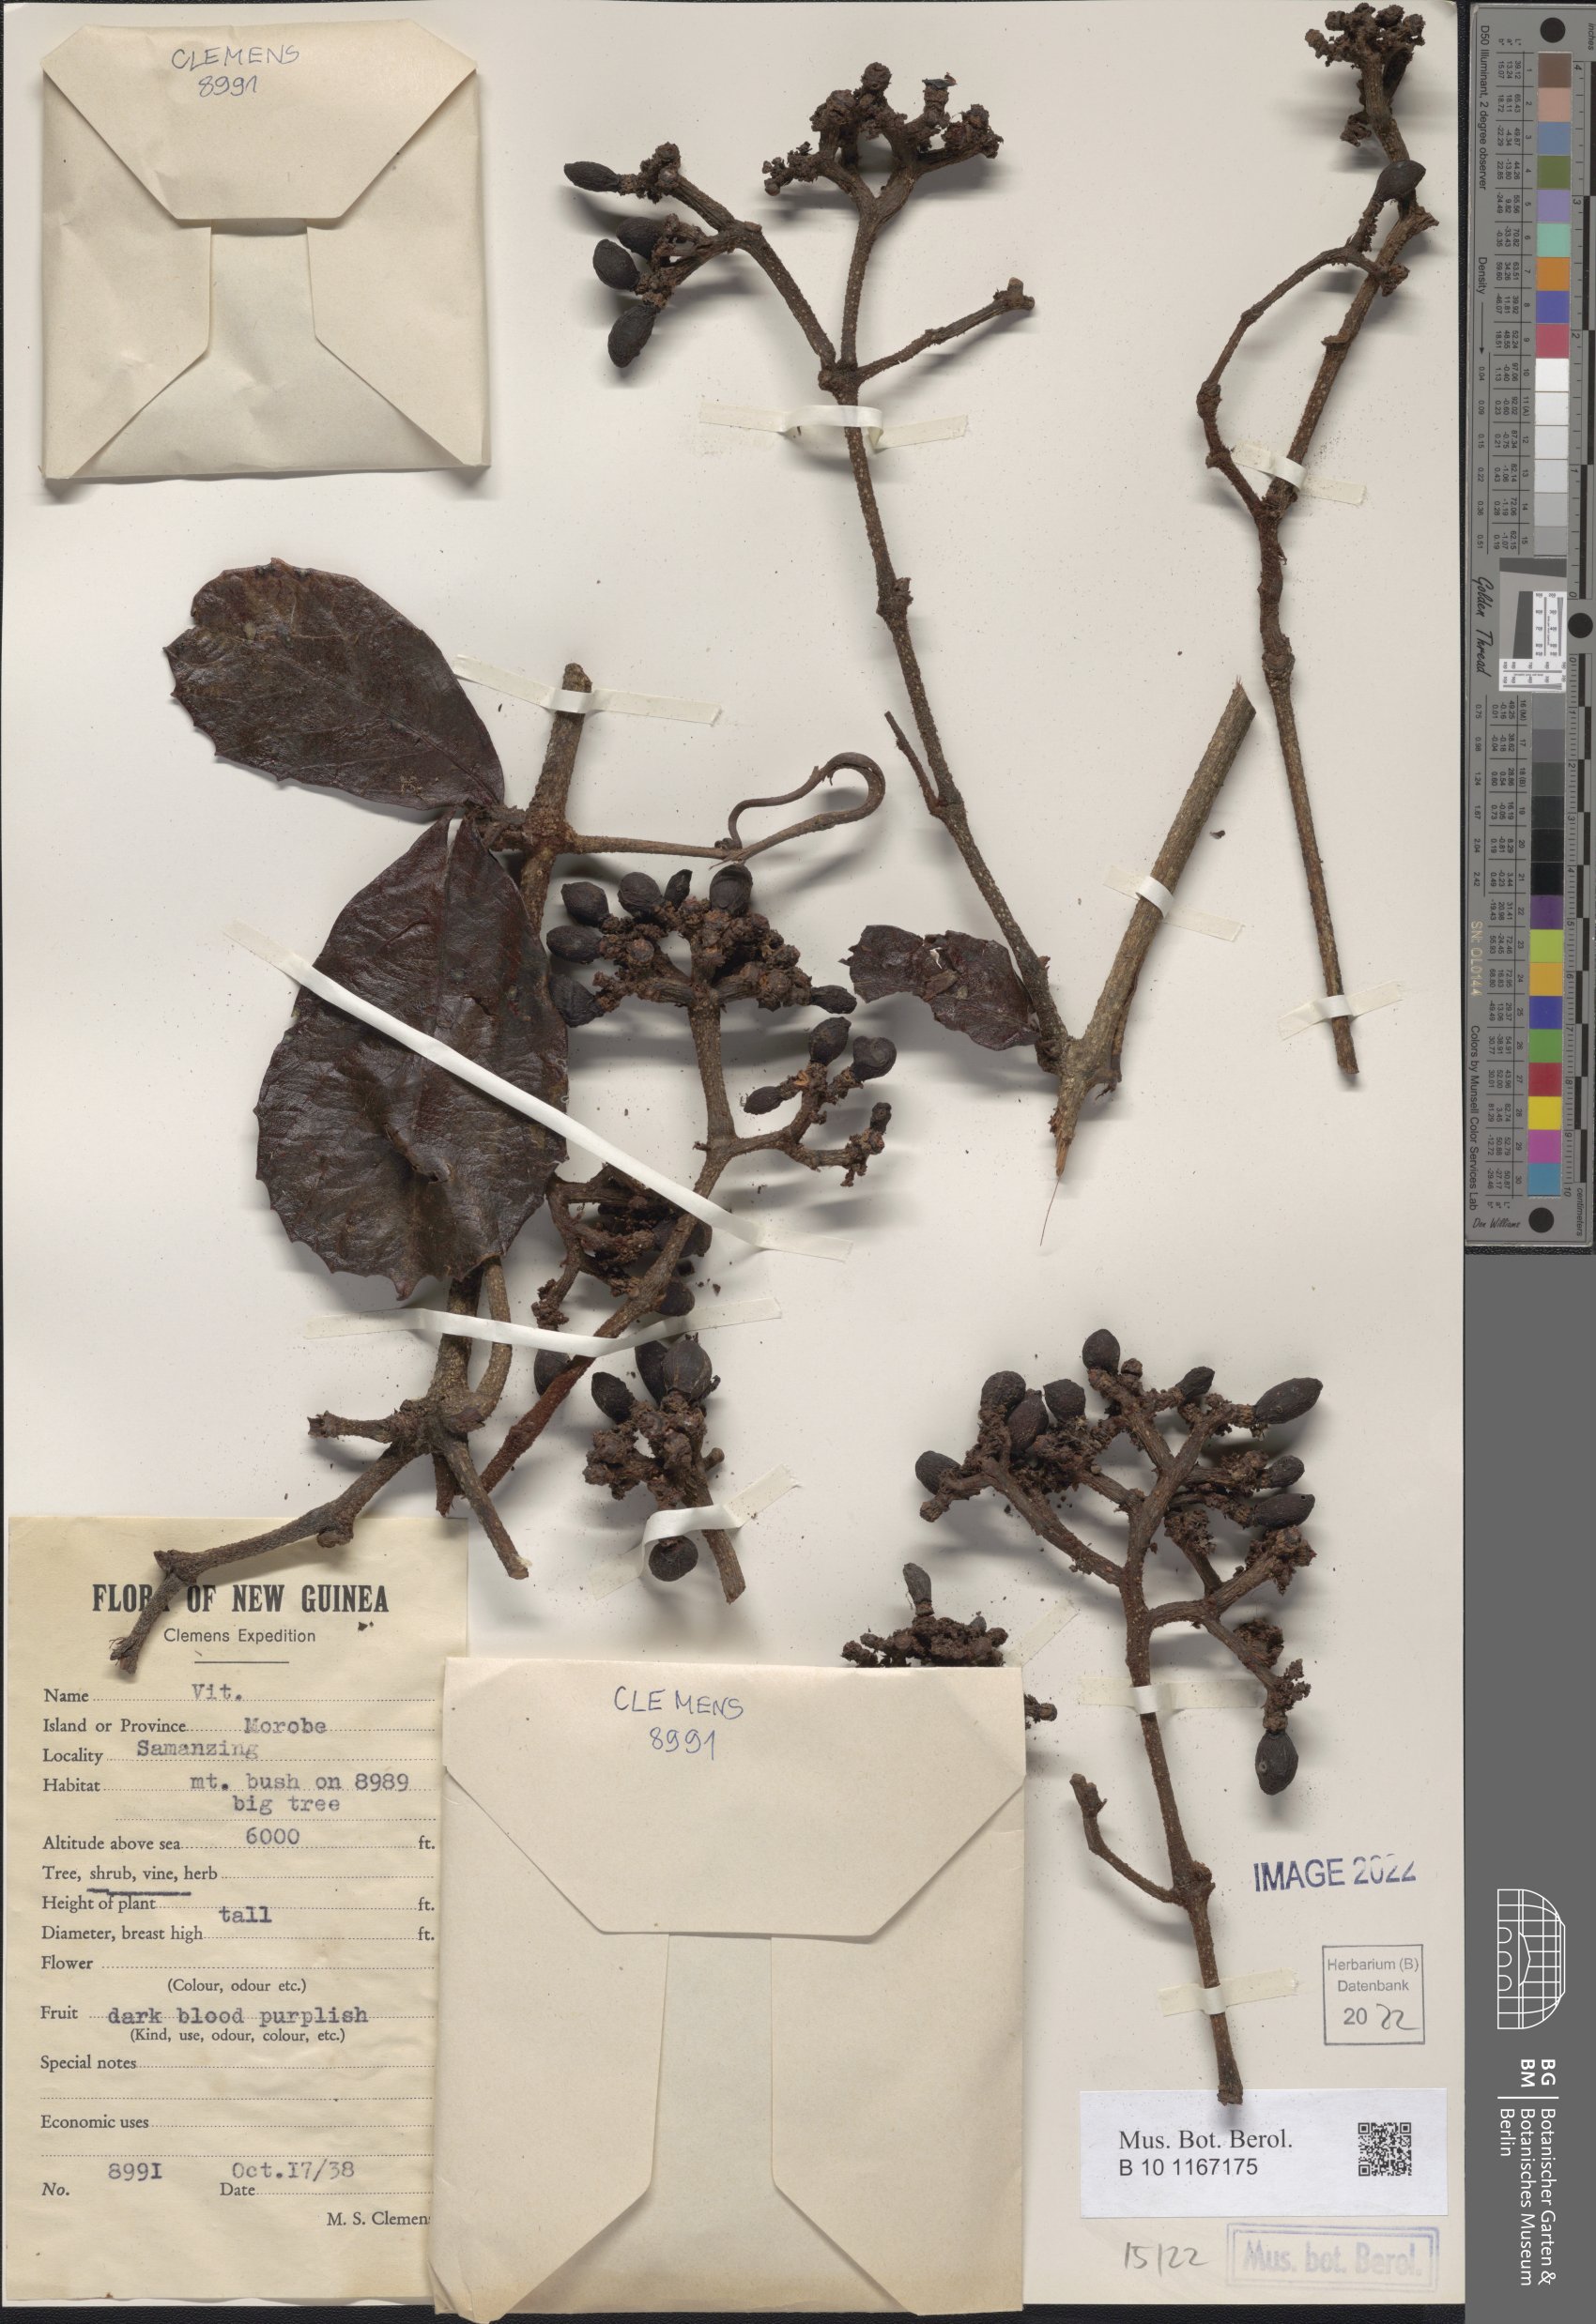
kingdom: Plantae
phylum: Tracheophyta
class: Magnoliopsida
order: Vitales
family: Vitaceae
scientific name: Vitaceae
